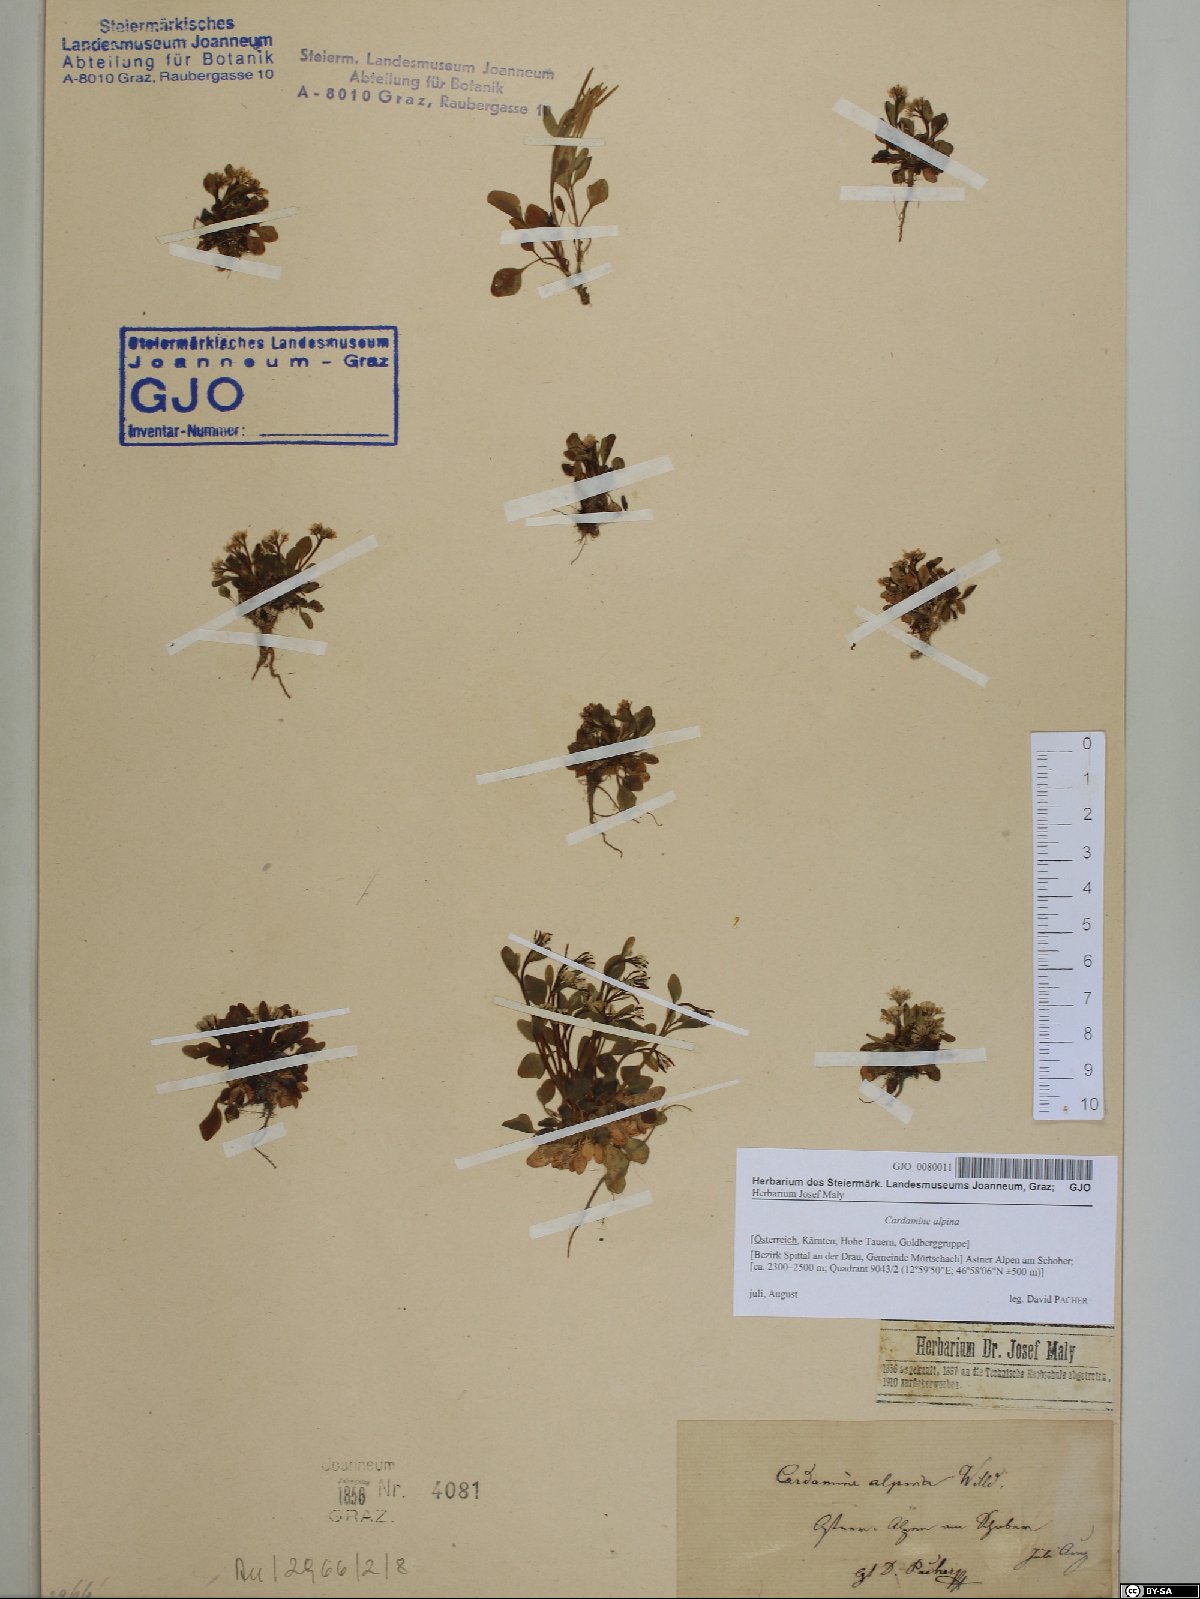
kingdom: Plantae
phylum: Tracheophyta
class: Magnoliopsida
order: Brassicales
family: Brassicaceae
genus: Cardamine
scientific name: Cardamine bellidifolia
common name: Alpine bittercress
